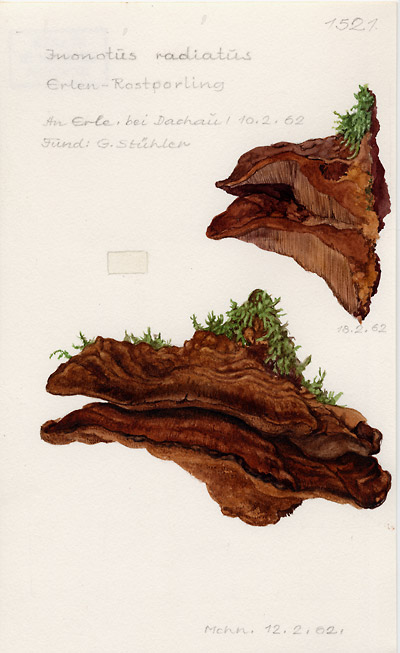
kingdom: Fungi
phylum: Basidiomycota
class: Agaricomycetes
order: Hymenochaetales
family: Hymenochaetaceae
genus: Xanthoporia
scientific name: Xanthoporia radiata
